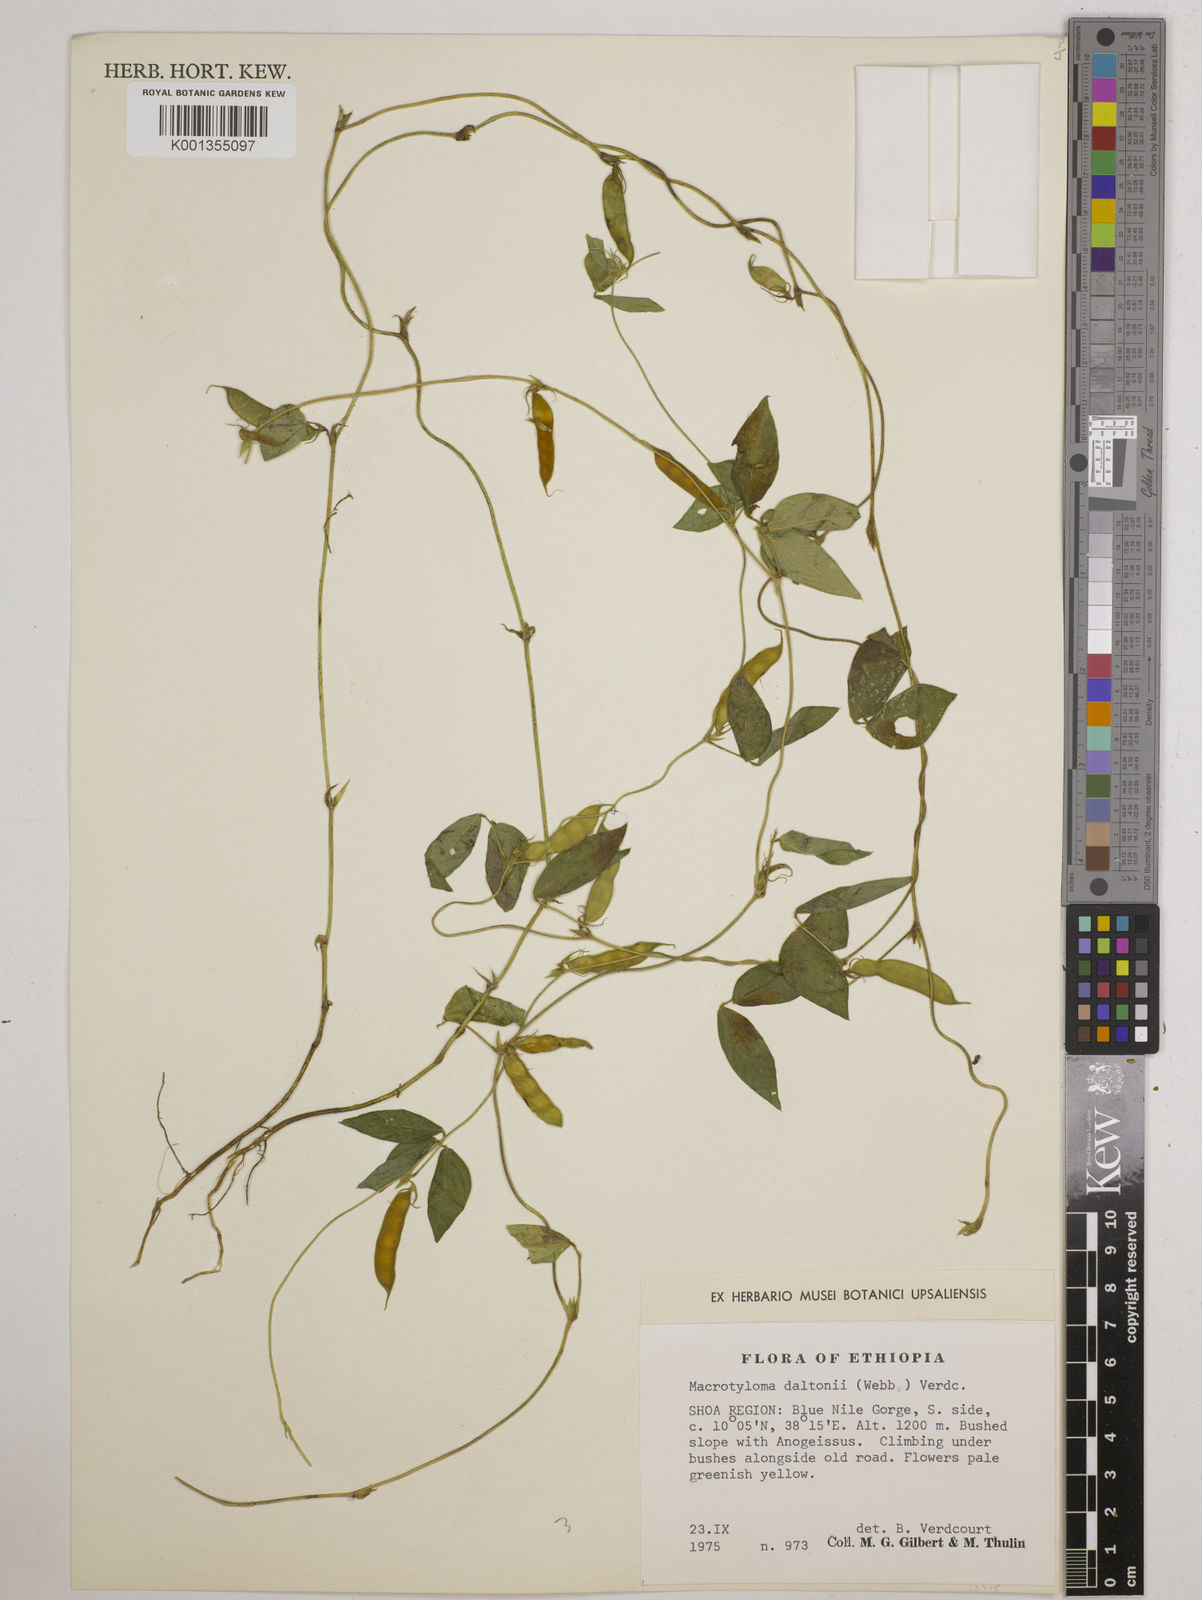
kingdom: Plantae
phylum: Tracheophyta
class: Magnoliopsida
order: Fabales
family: Fabaceae
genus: Macrotyloma
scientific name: Macrotyloma daltonii
